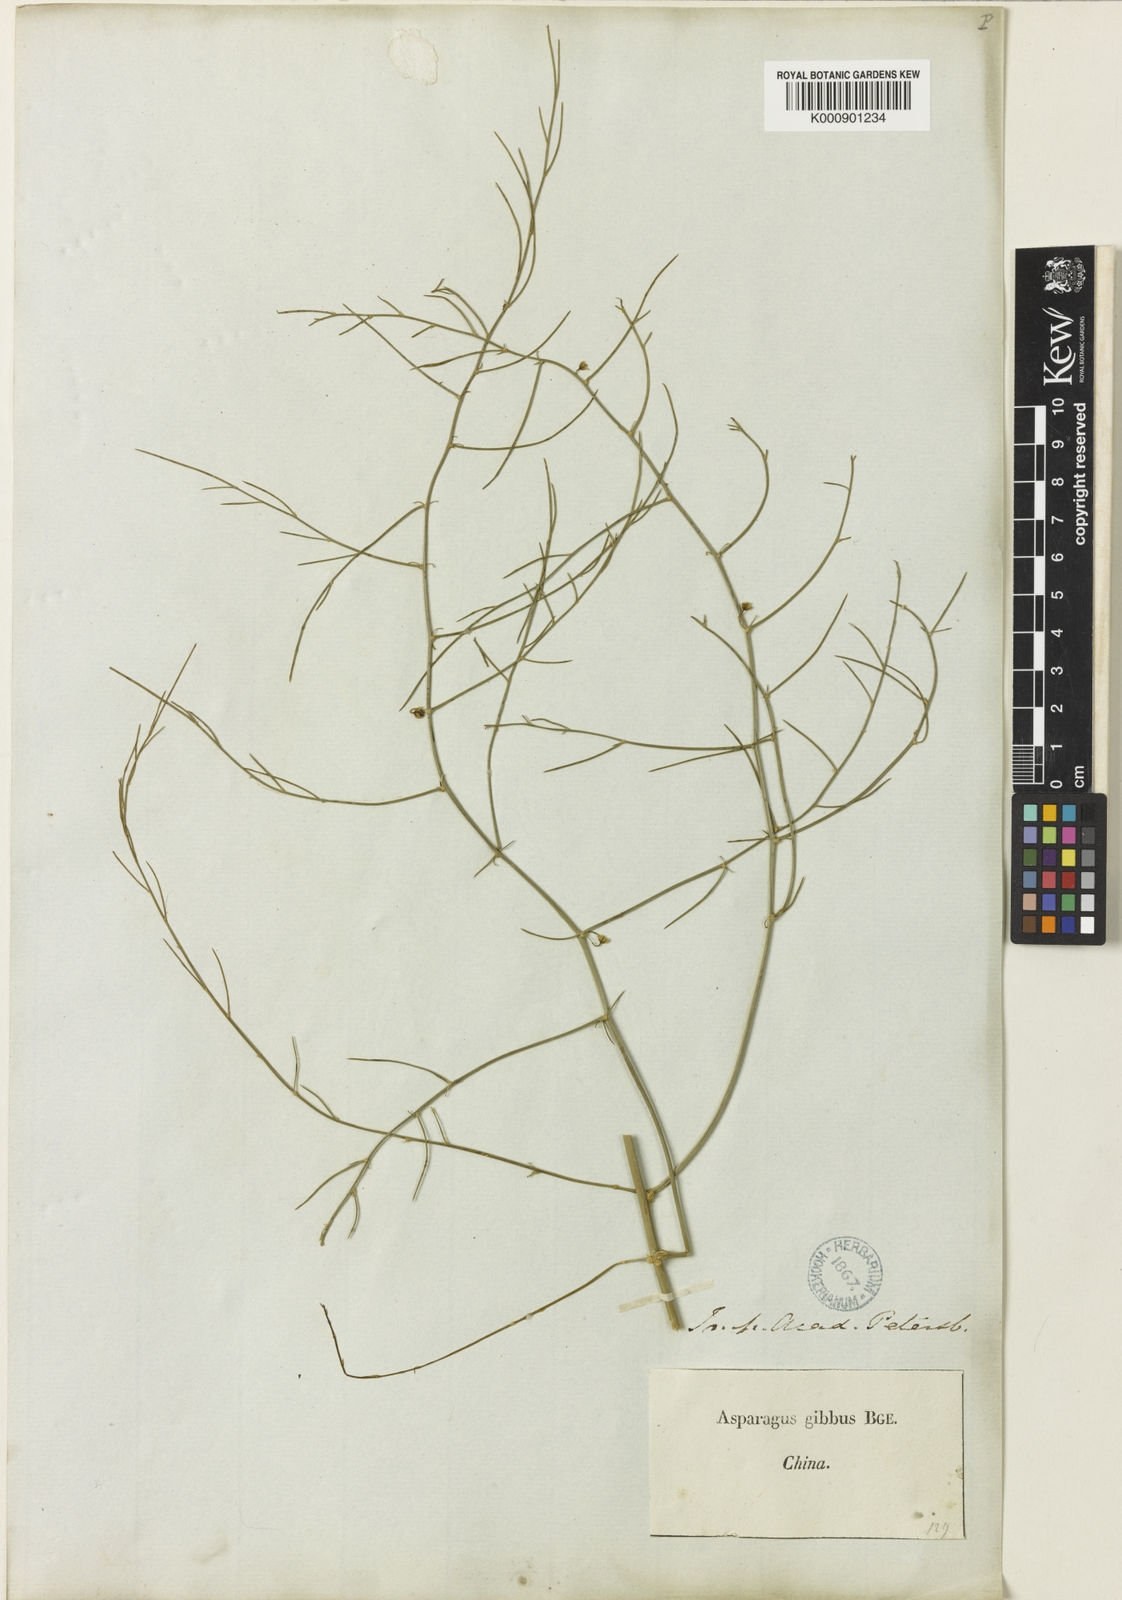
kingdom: Plantae
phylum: Tracheophyta
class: Liliopsida
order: Asparagales
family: Asparagaceae
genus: Asparagus
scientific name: Asparagus dauricus
